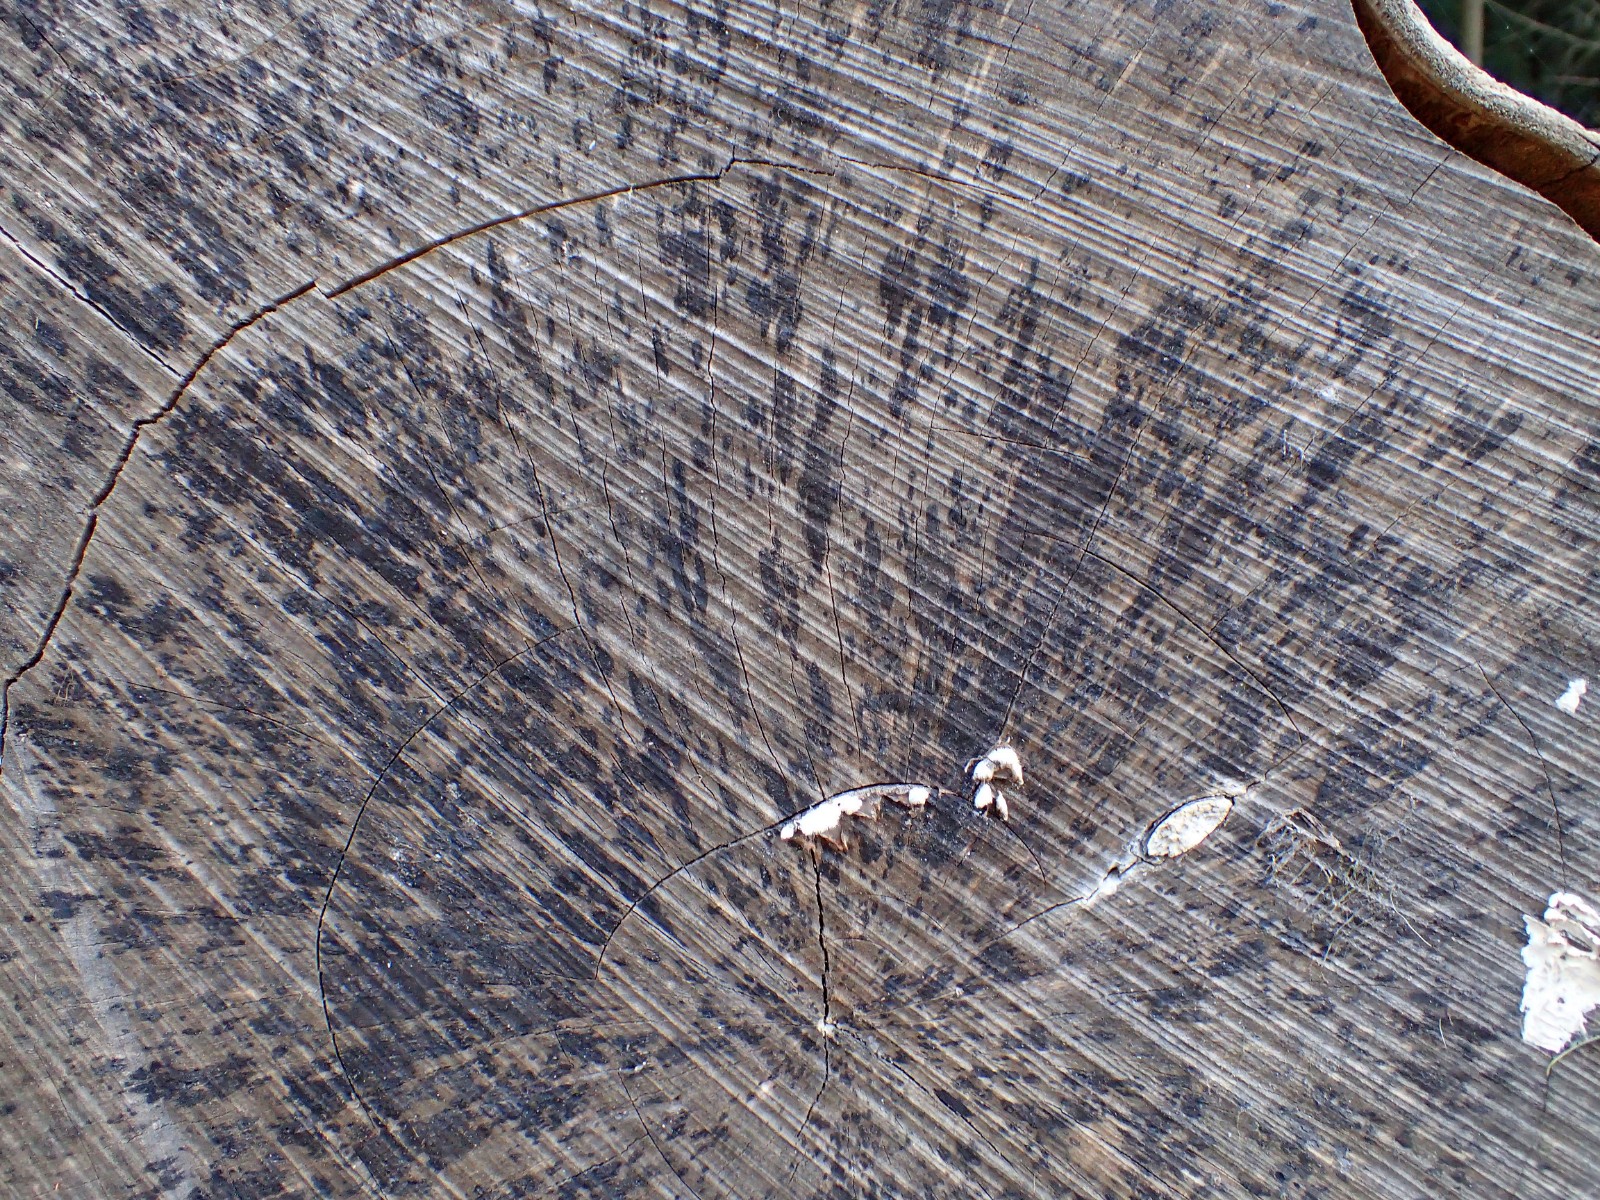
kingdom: Fungi
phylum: Ascomycota
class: Leotiomycetes
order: Helotiales
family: Helotiaceae
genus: Bispora
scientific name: Bispora pallescens
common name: måtte-snitskive
